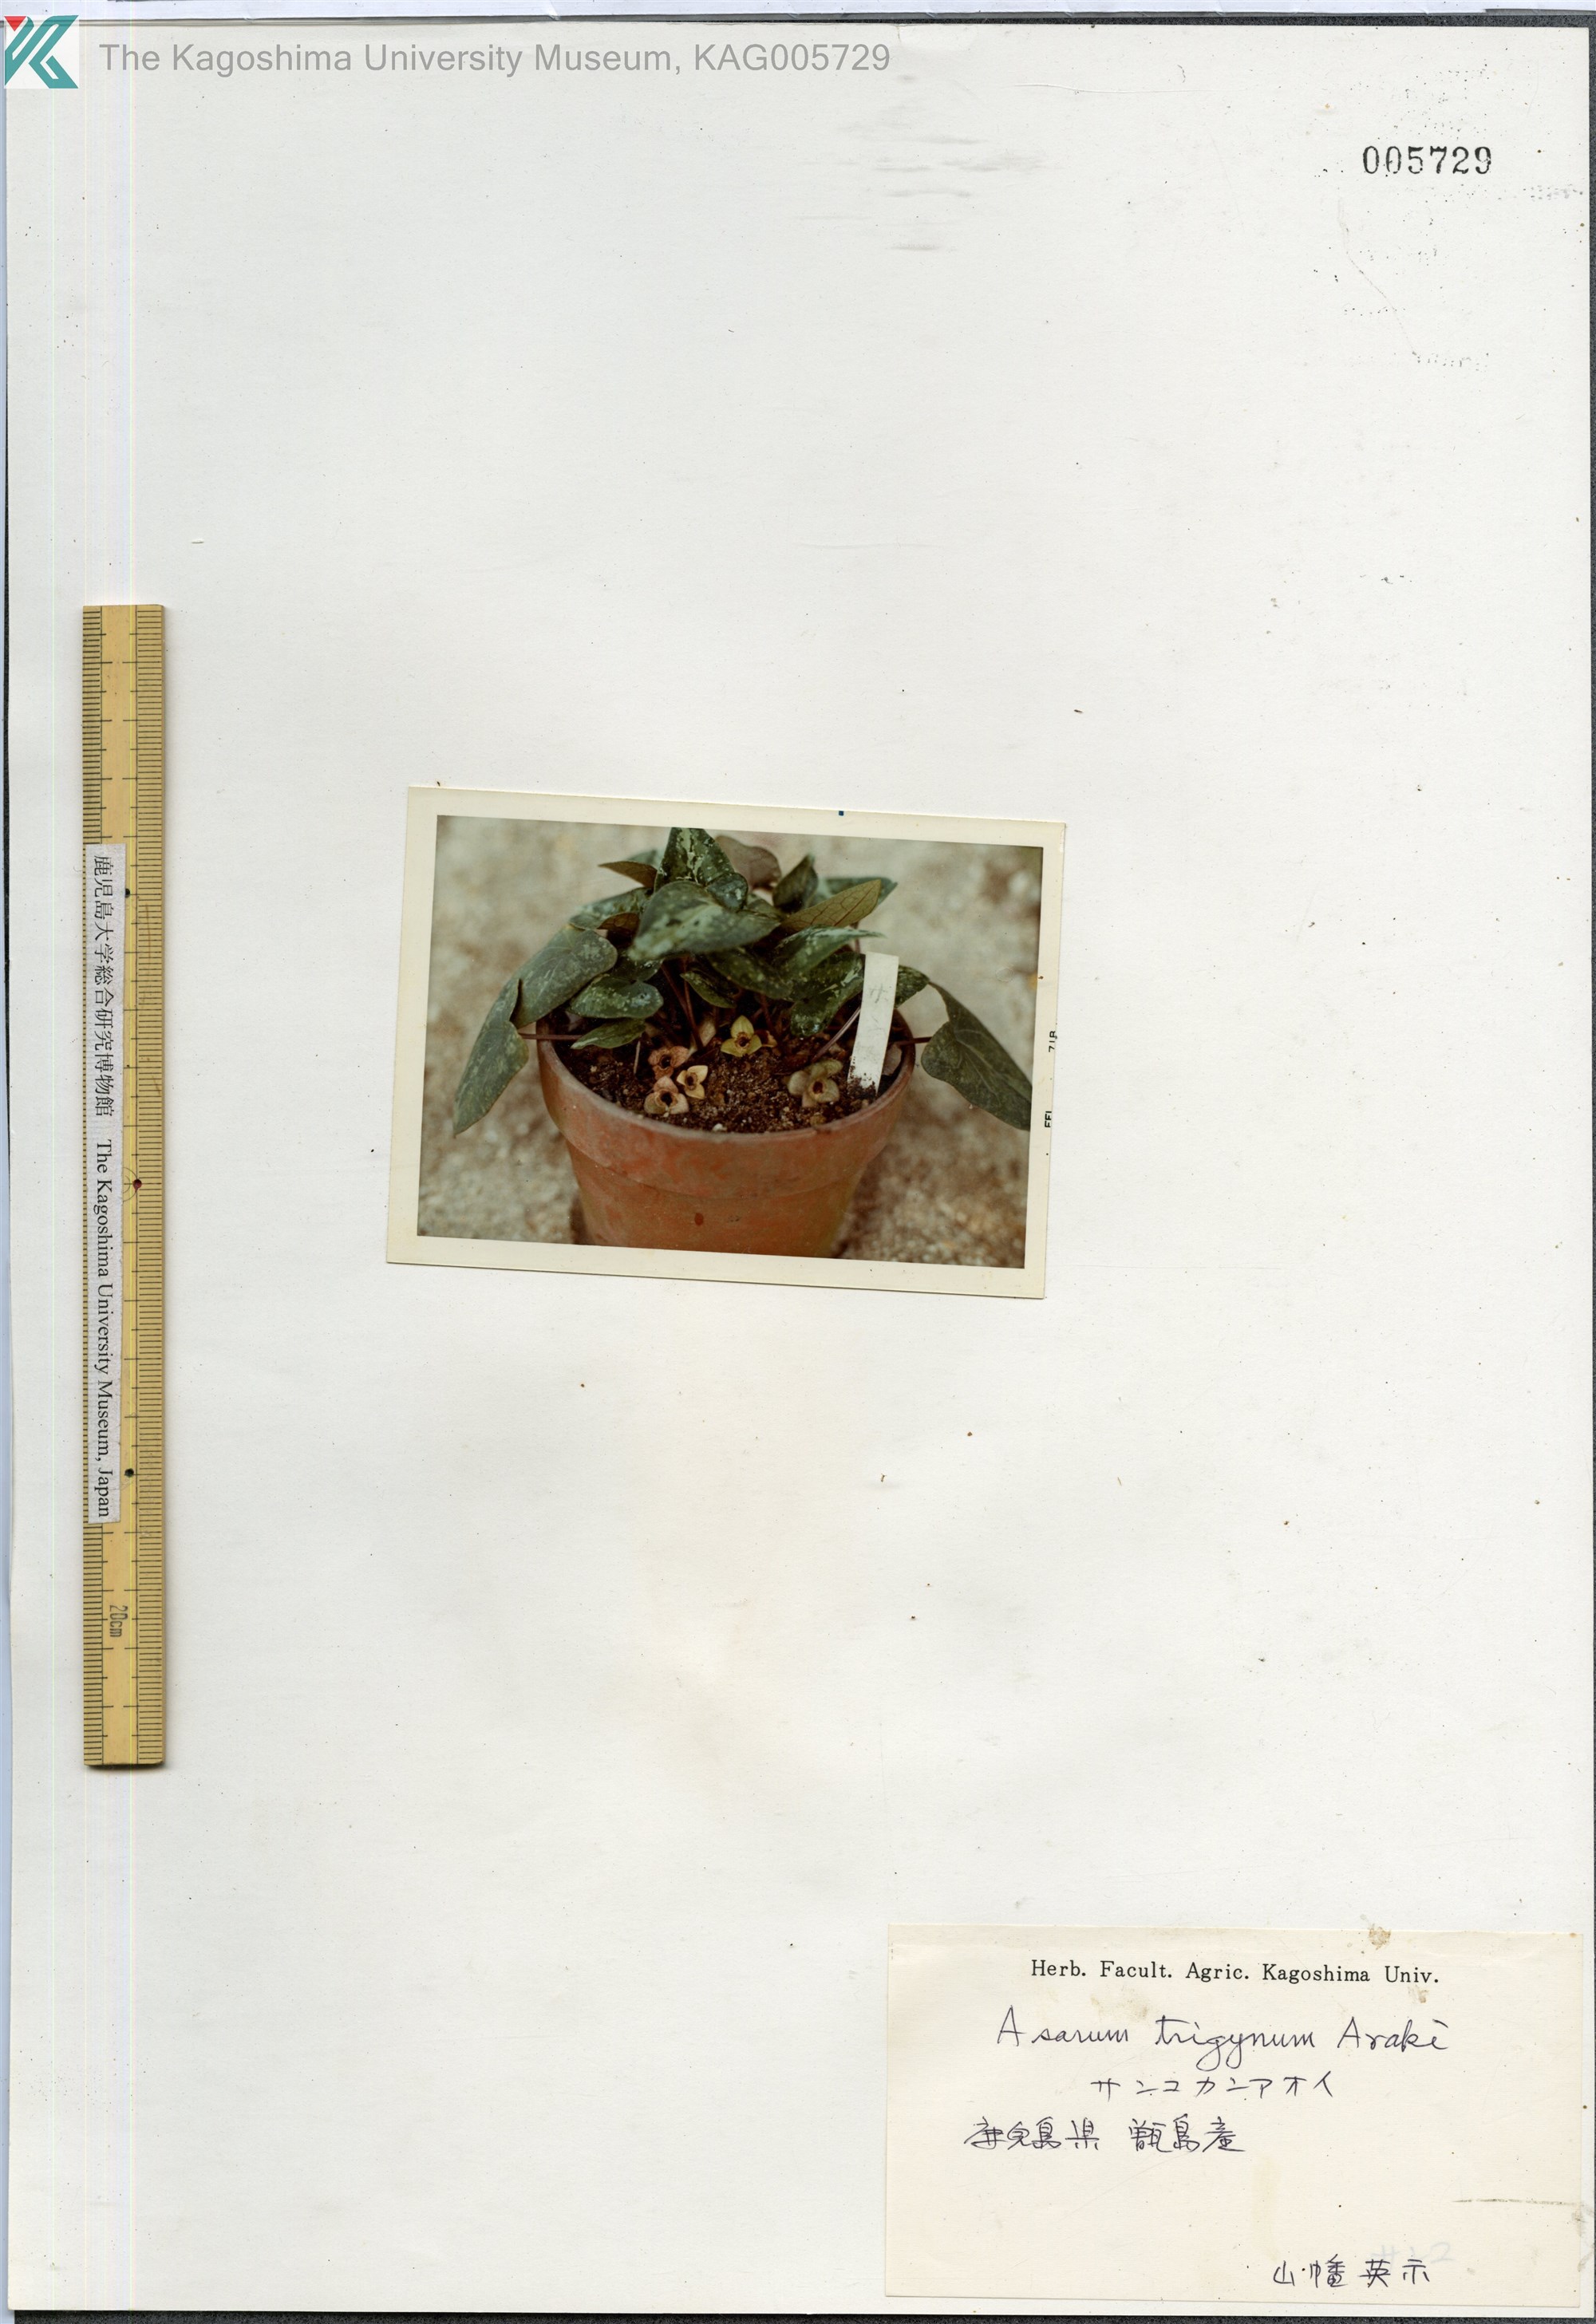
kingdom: Plantae
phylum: Tracheophyta
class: Magnoliopsida
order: Piperales
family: Aristolochiaceae
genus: Asarum
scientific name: Asarum trigynum
